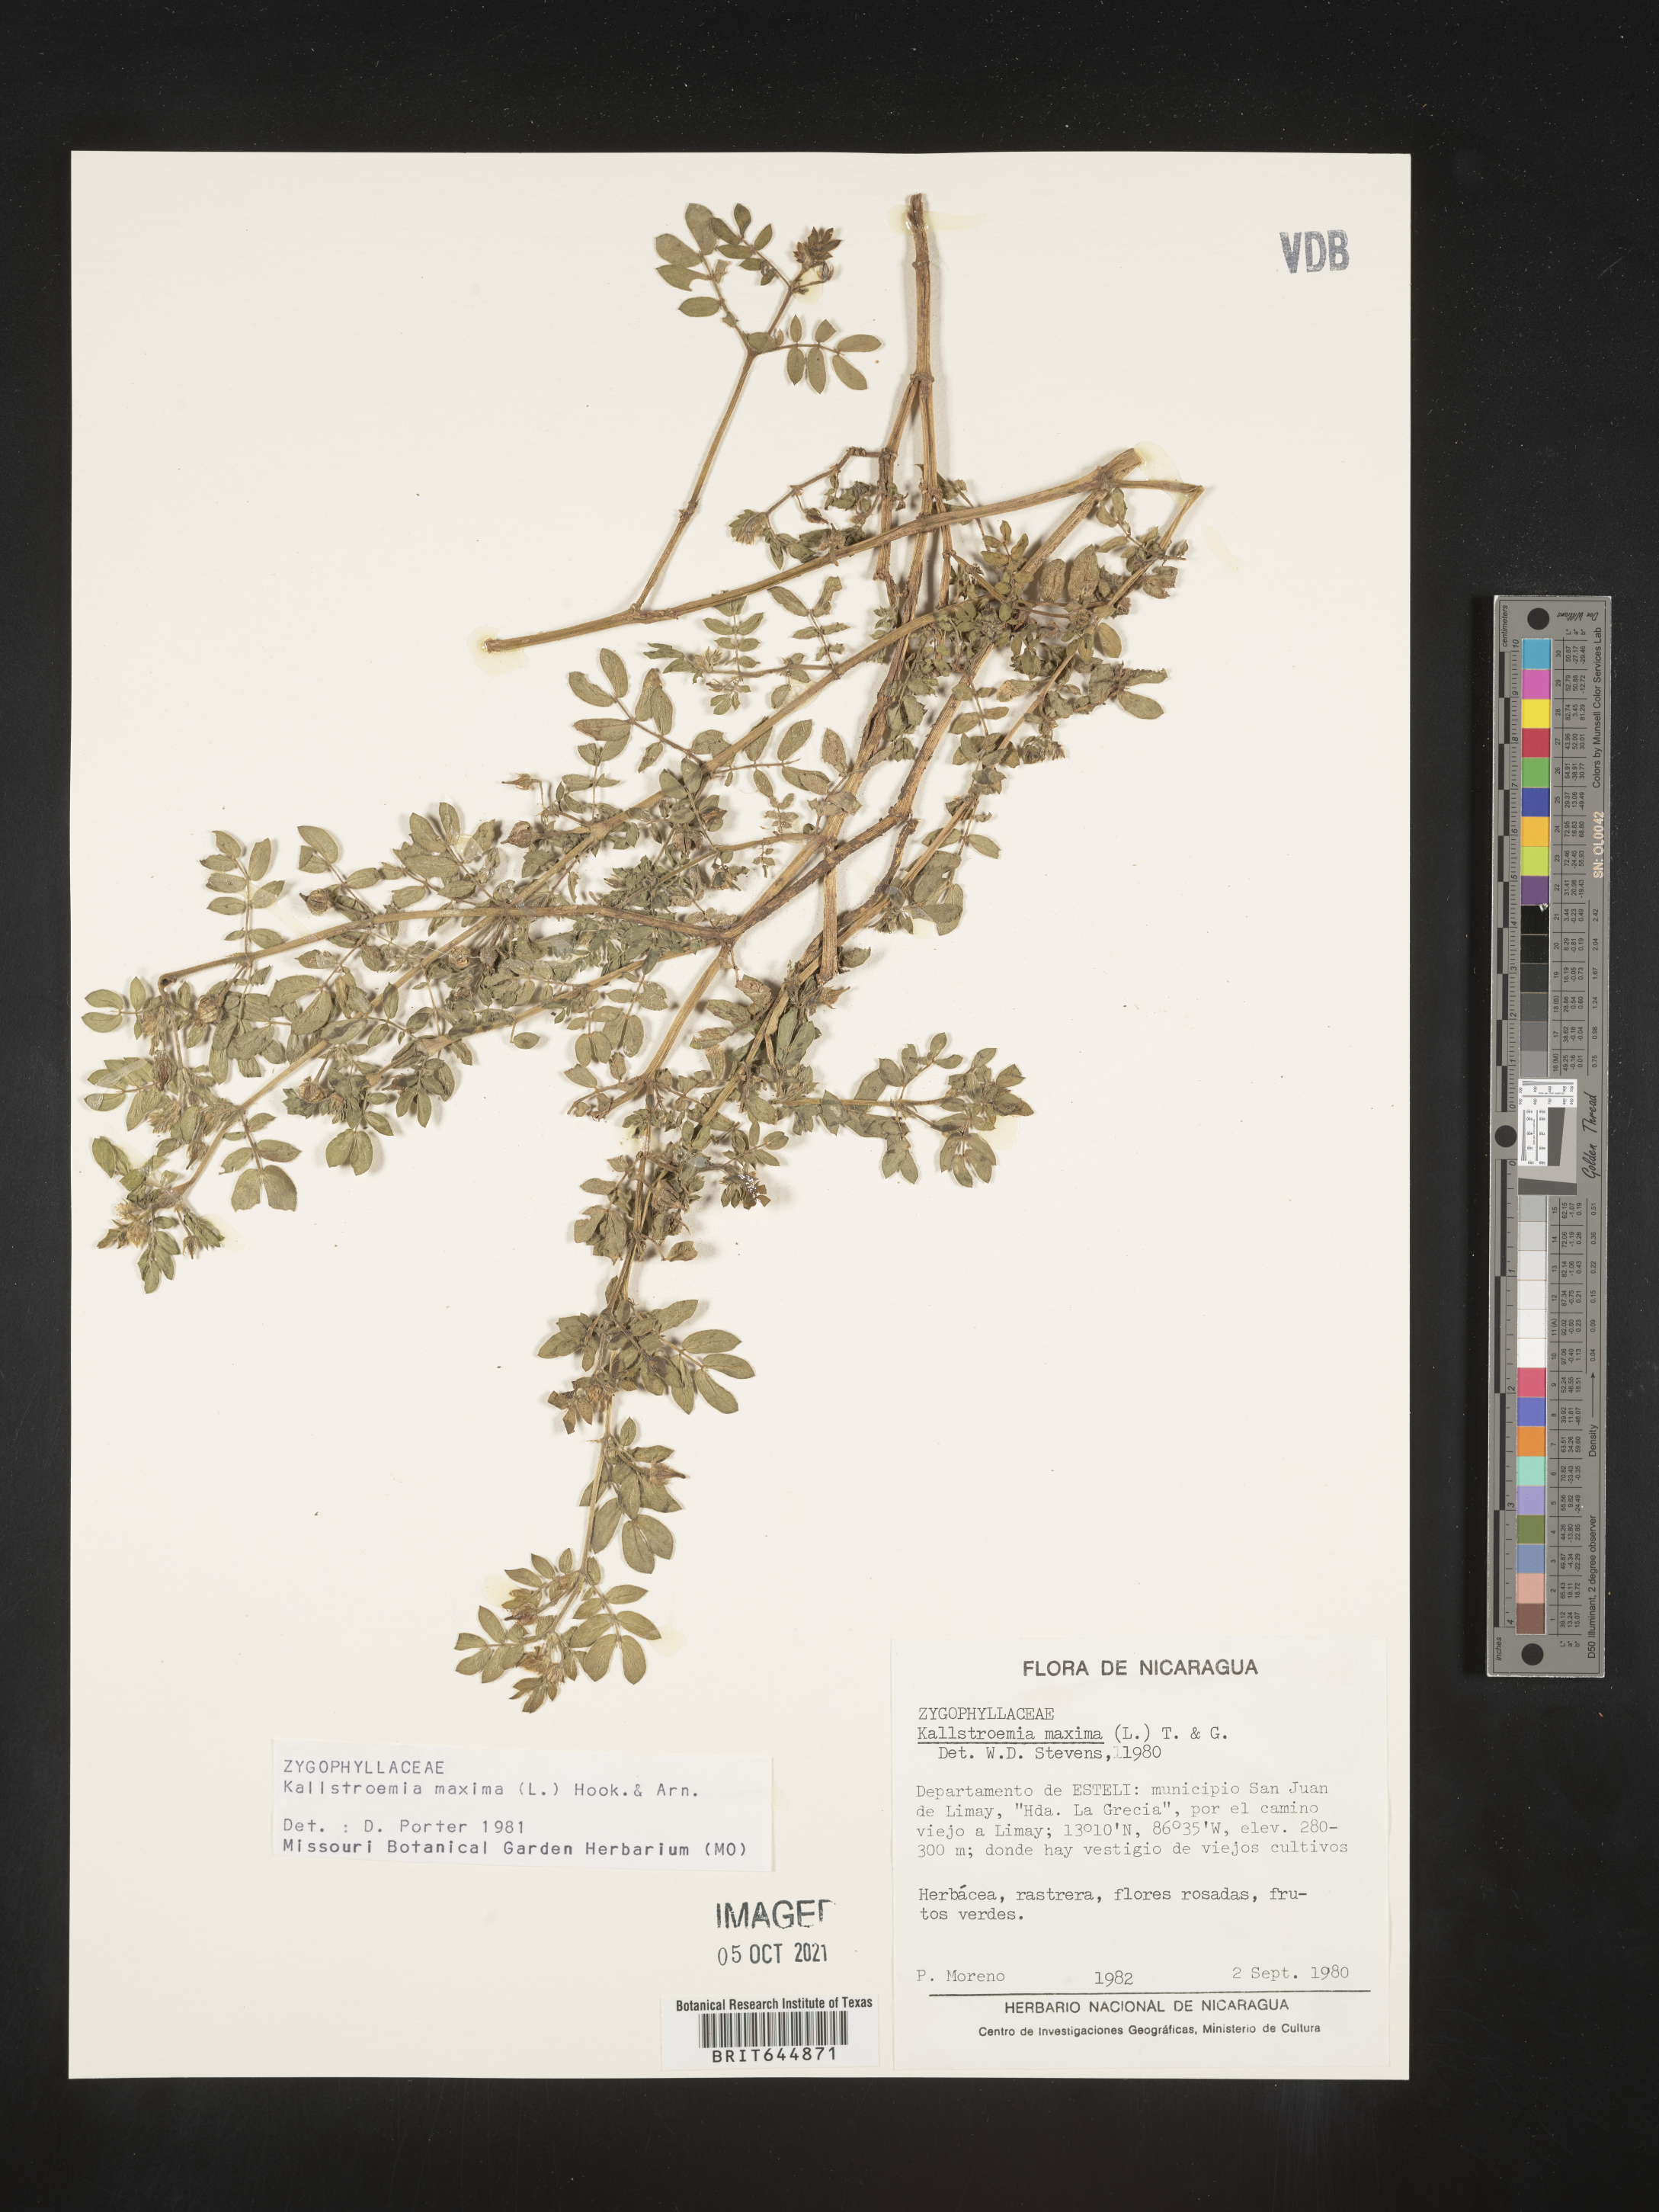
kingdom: Plantae
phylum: Tracheophyta
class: Magnoliopsida
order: Zygophyllales
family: Zygophyllaceae
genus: Kallstroemia
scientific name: Kallstroemia
